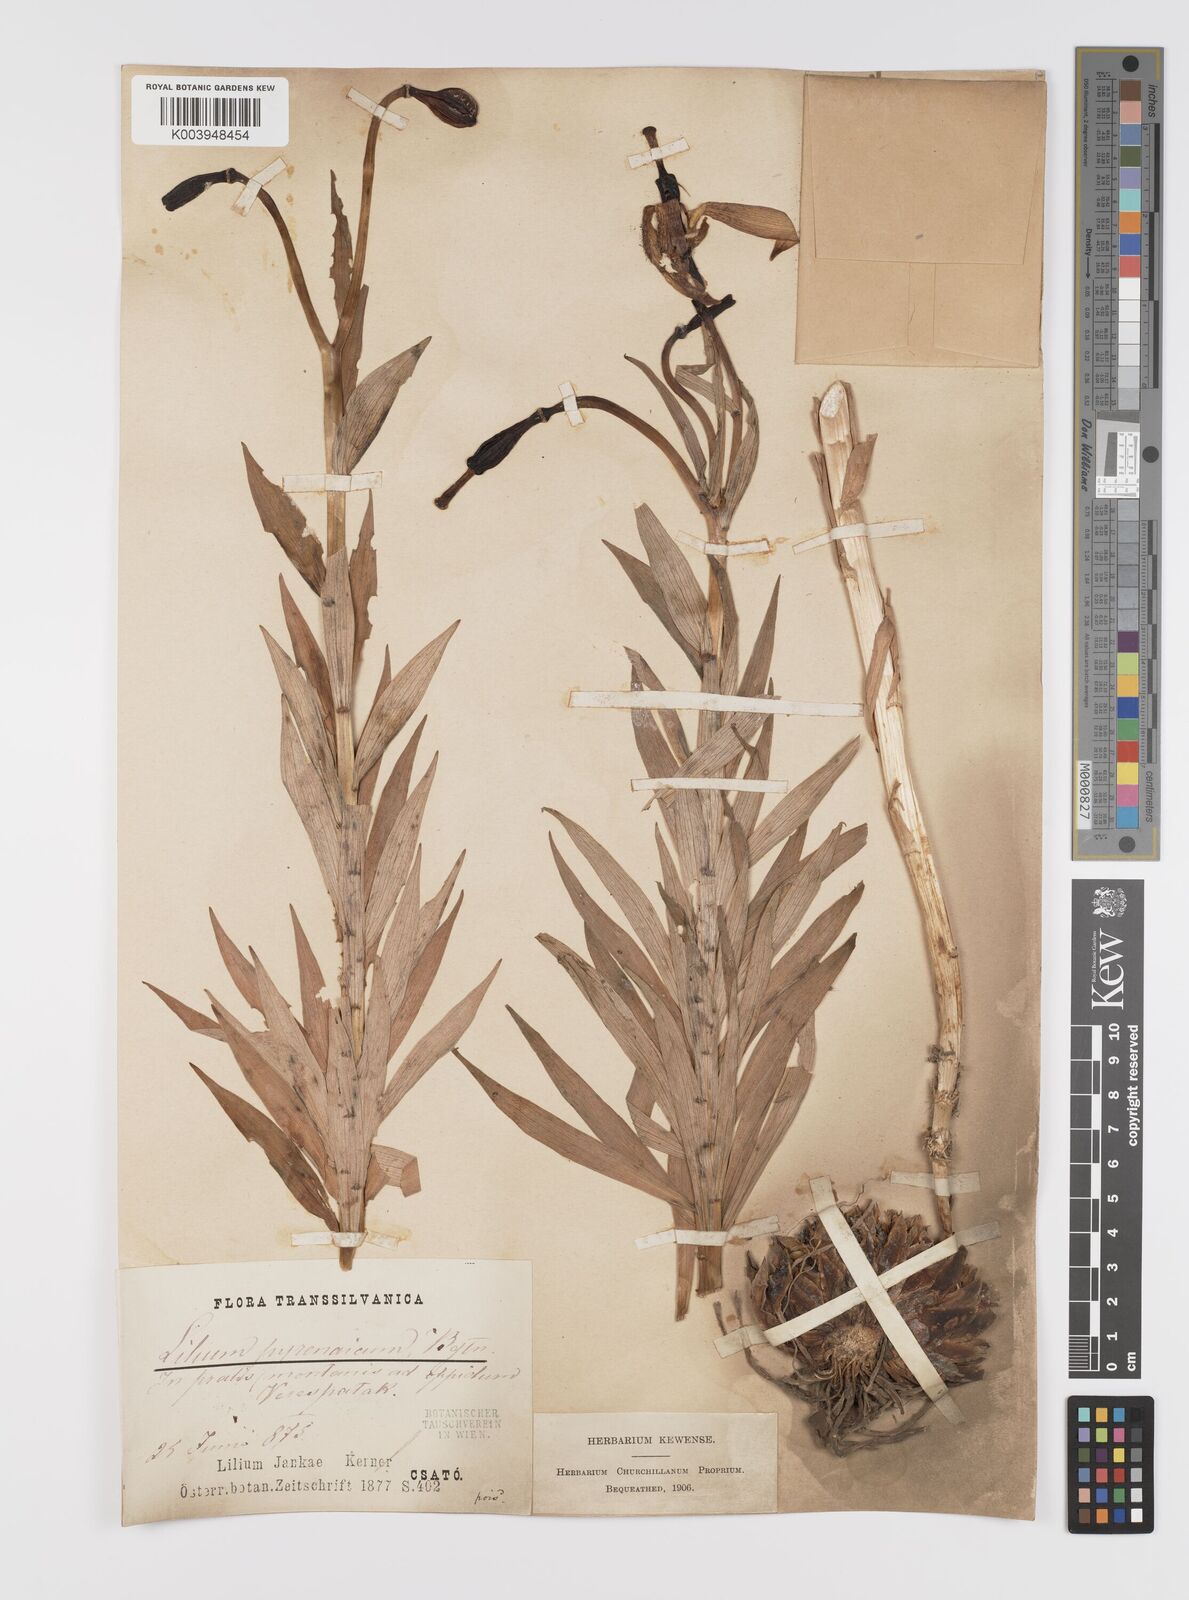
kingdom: Plantae
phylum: Tracheophyta
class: Liliopsida
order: Liliales
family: Liliaceae
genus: Lilium
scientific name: Lilium jankae
